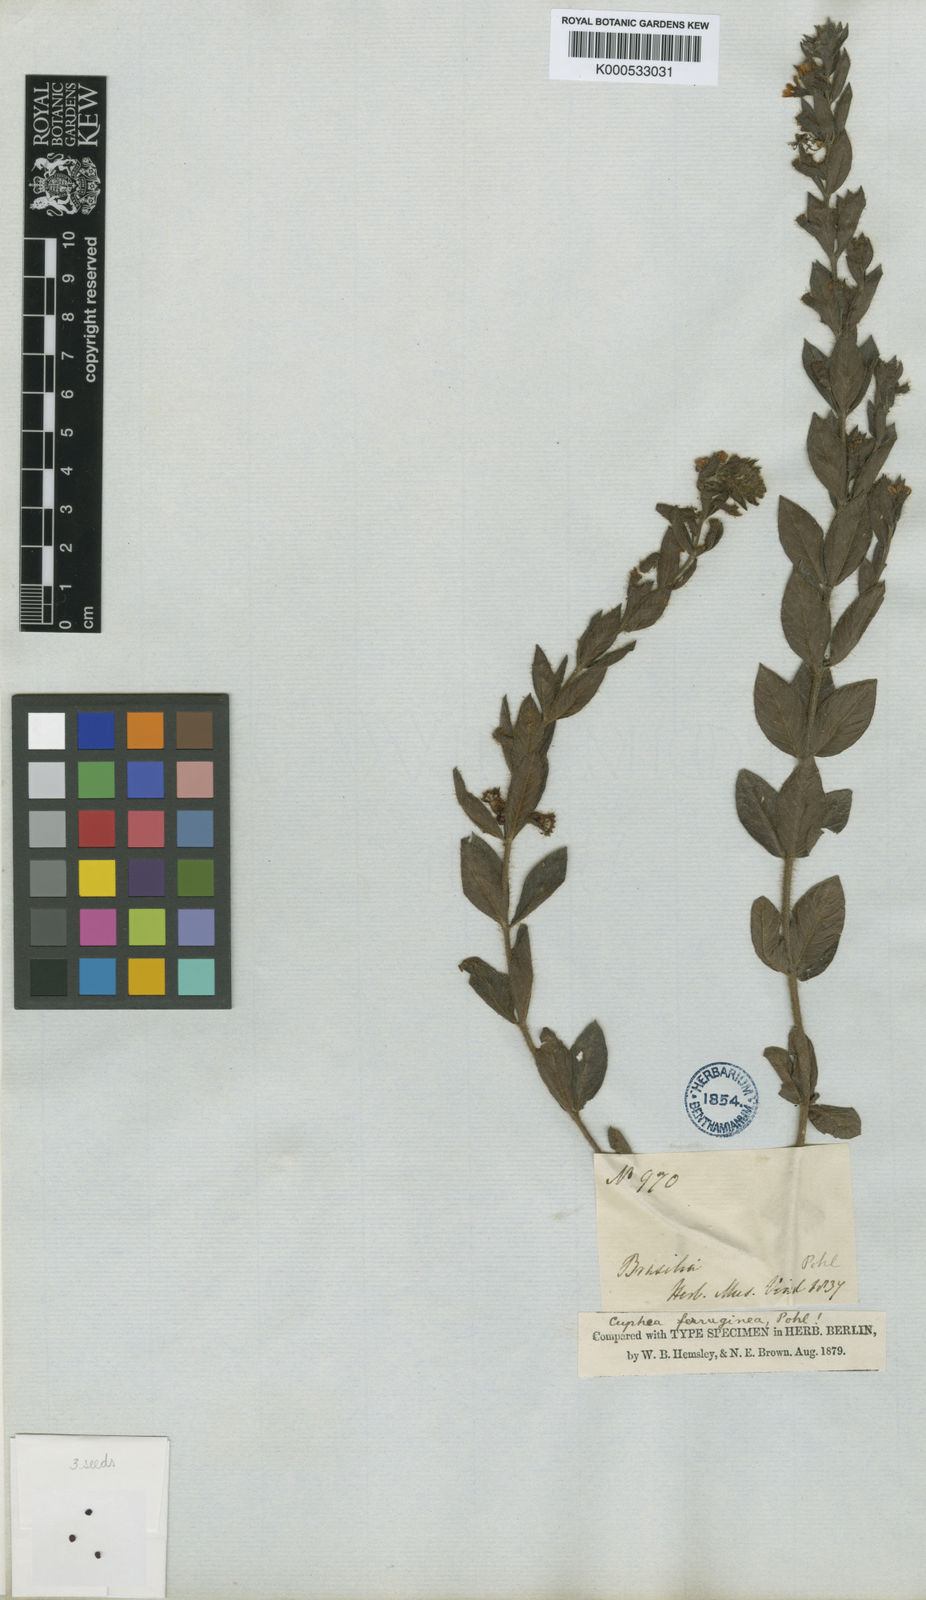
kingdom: Plantae
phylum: Tracheophyta
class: Magnoliopsida
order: Myrtales
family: Lythraceae
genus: Cuphea
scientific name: Cuphea ferruginea
